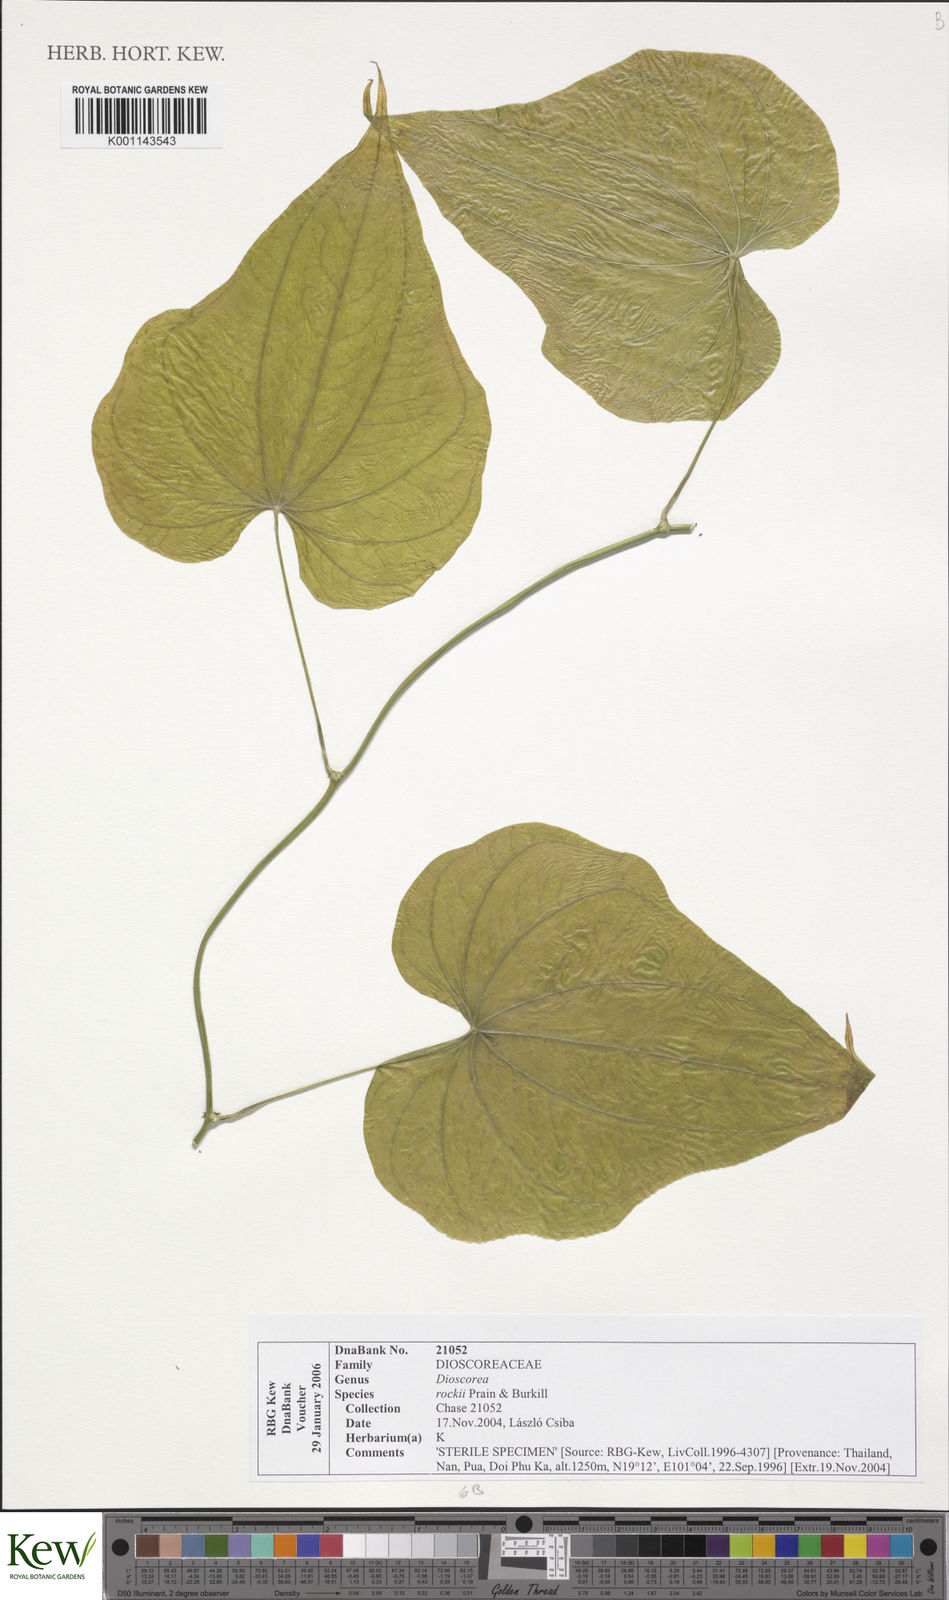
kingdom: Plantae
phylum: Tracheophyta
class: Liliopsida
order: Dioscoreales
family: Dioscoreaceae
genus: Dioscorea
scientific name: Dioscorea rockii
